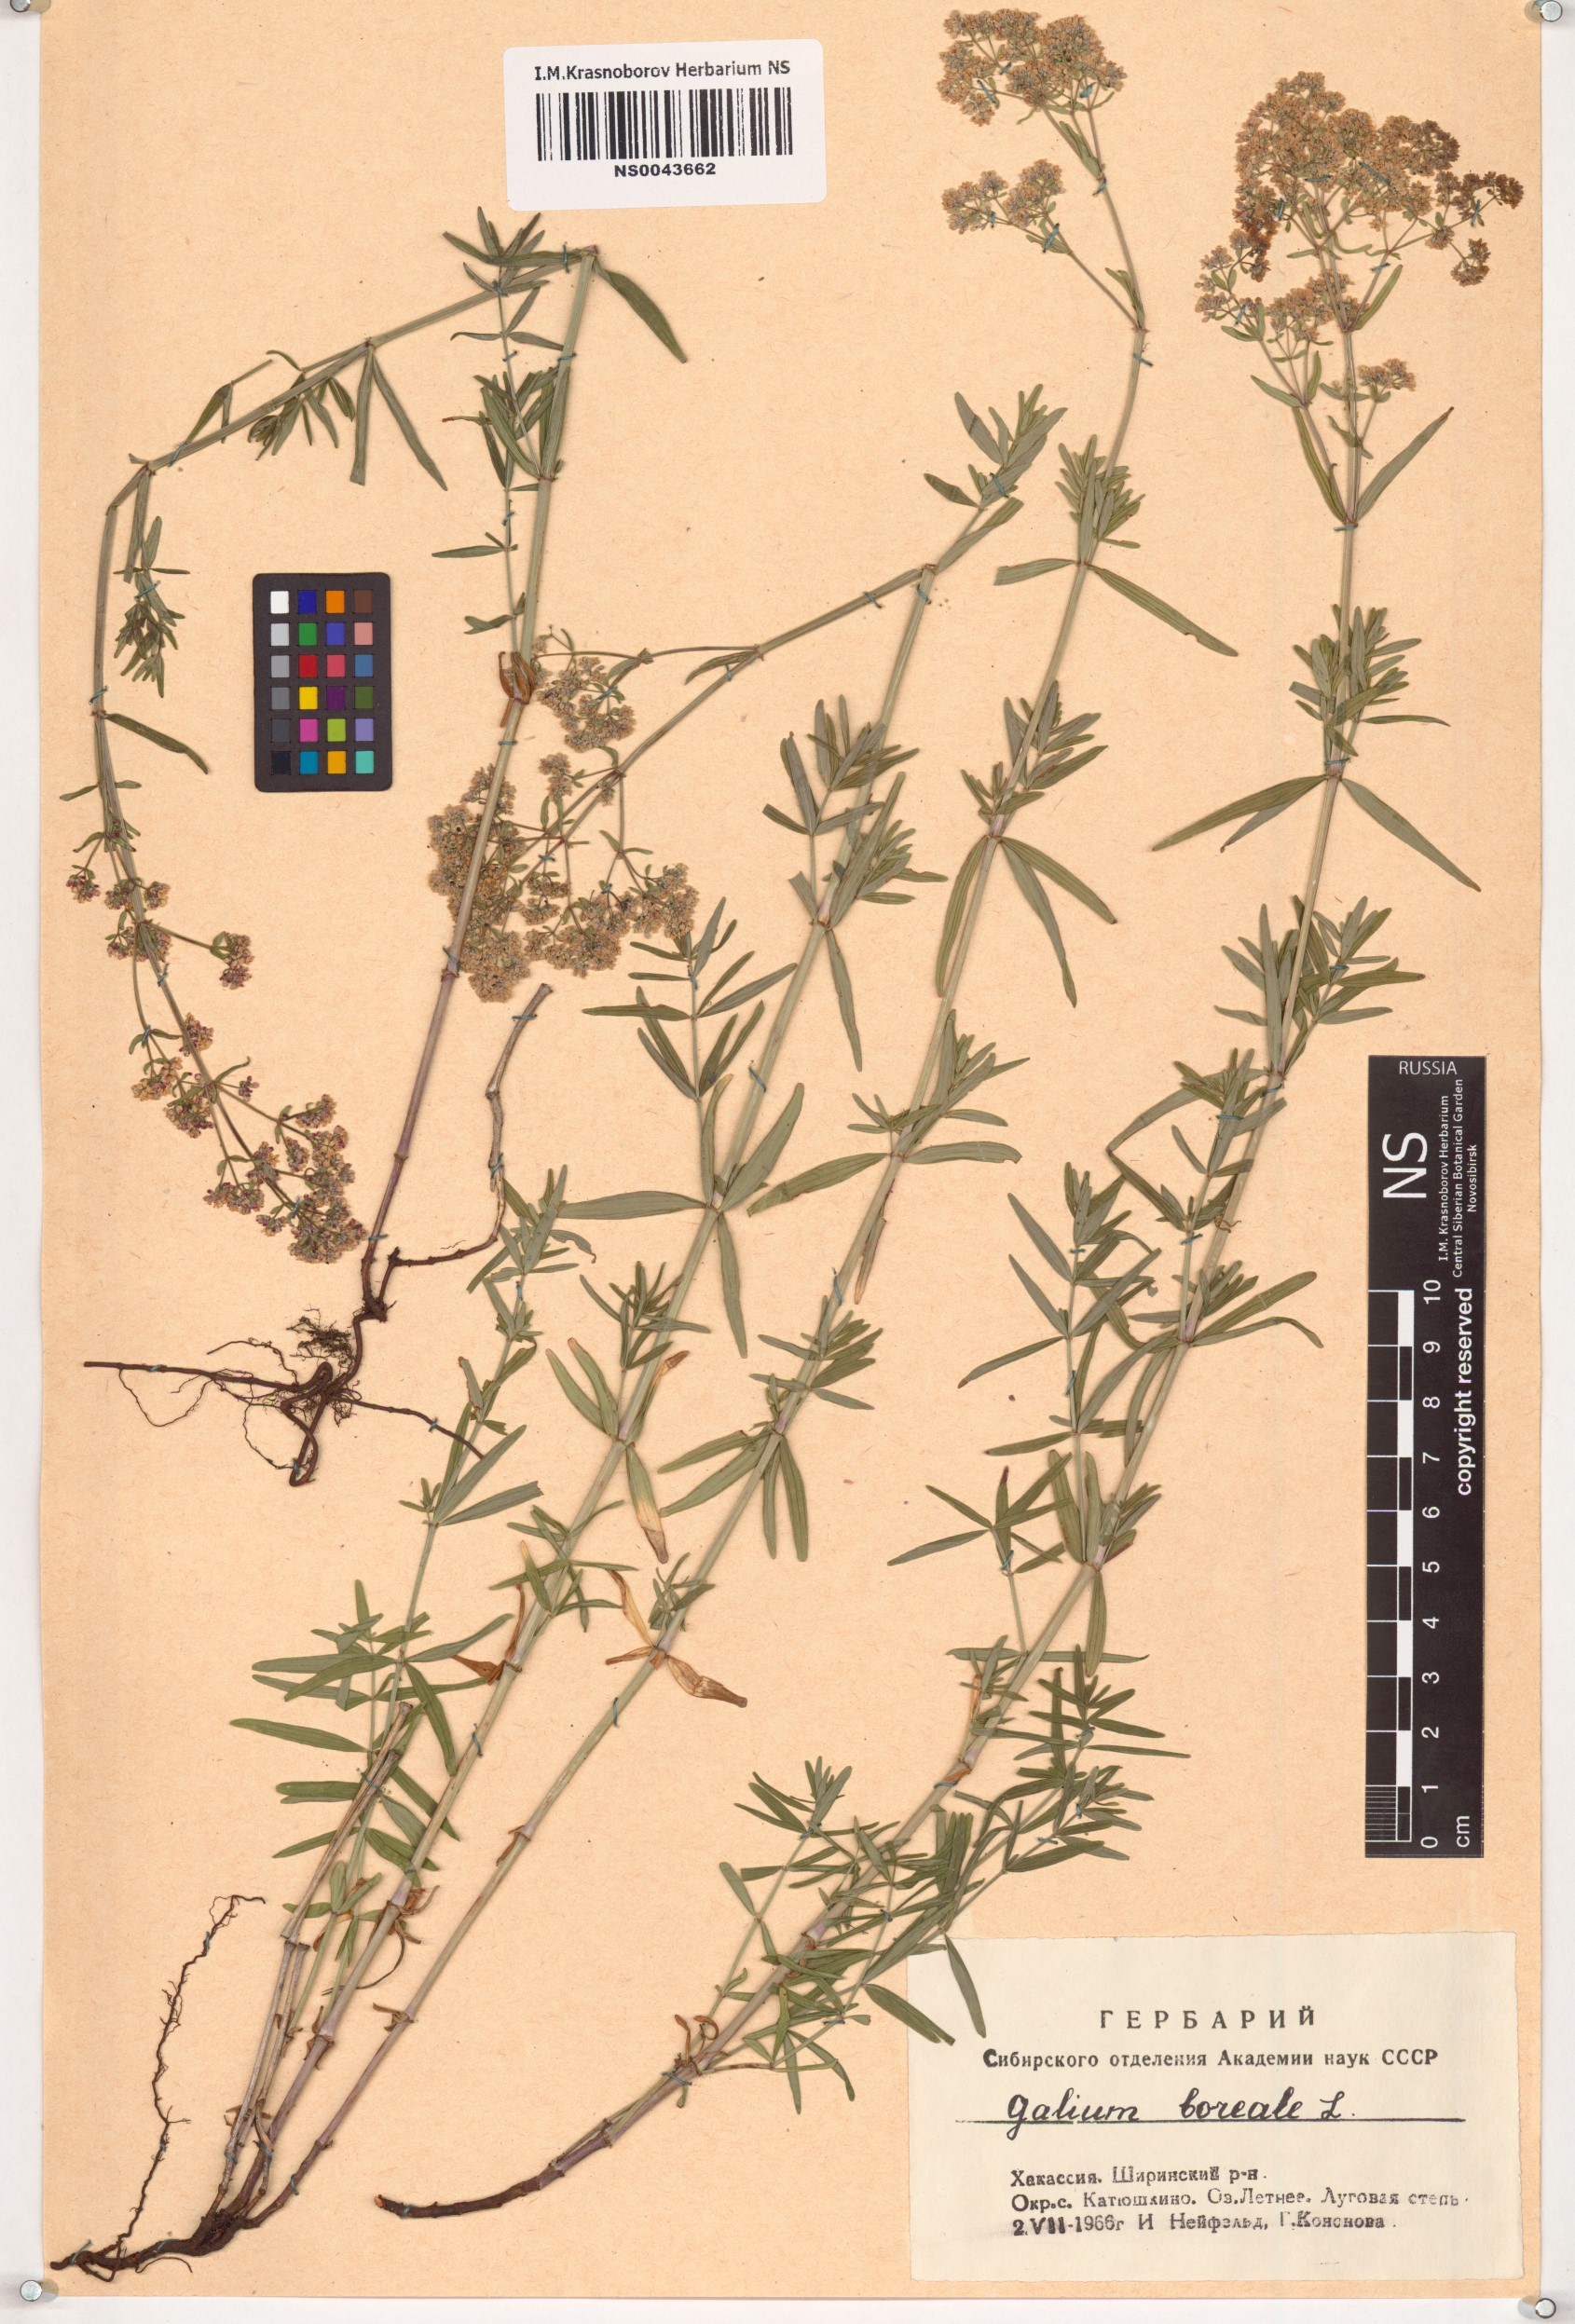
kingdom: Plantae
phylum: Tracheophyta
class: Magnoliopsida
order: Gentianales
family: Rubiaceae
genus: Galium
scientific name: Galium boreale
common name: Northern bedstraw
